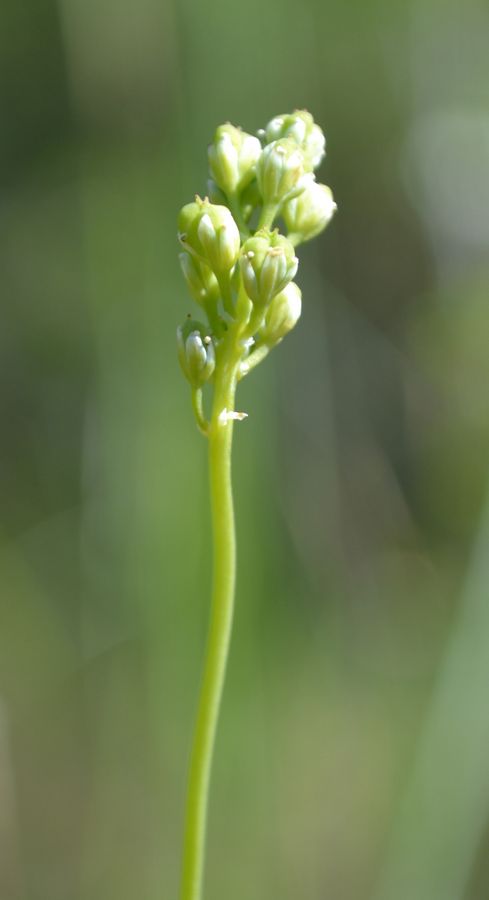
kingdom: Plantae
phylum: Tracheophyta
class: Liliopsida
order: Alismatales
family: Tofieldiaceae
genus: Tofieldia
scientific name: Tofieldia pusilla
